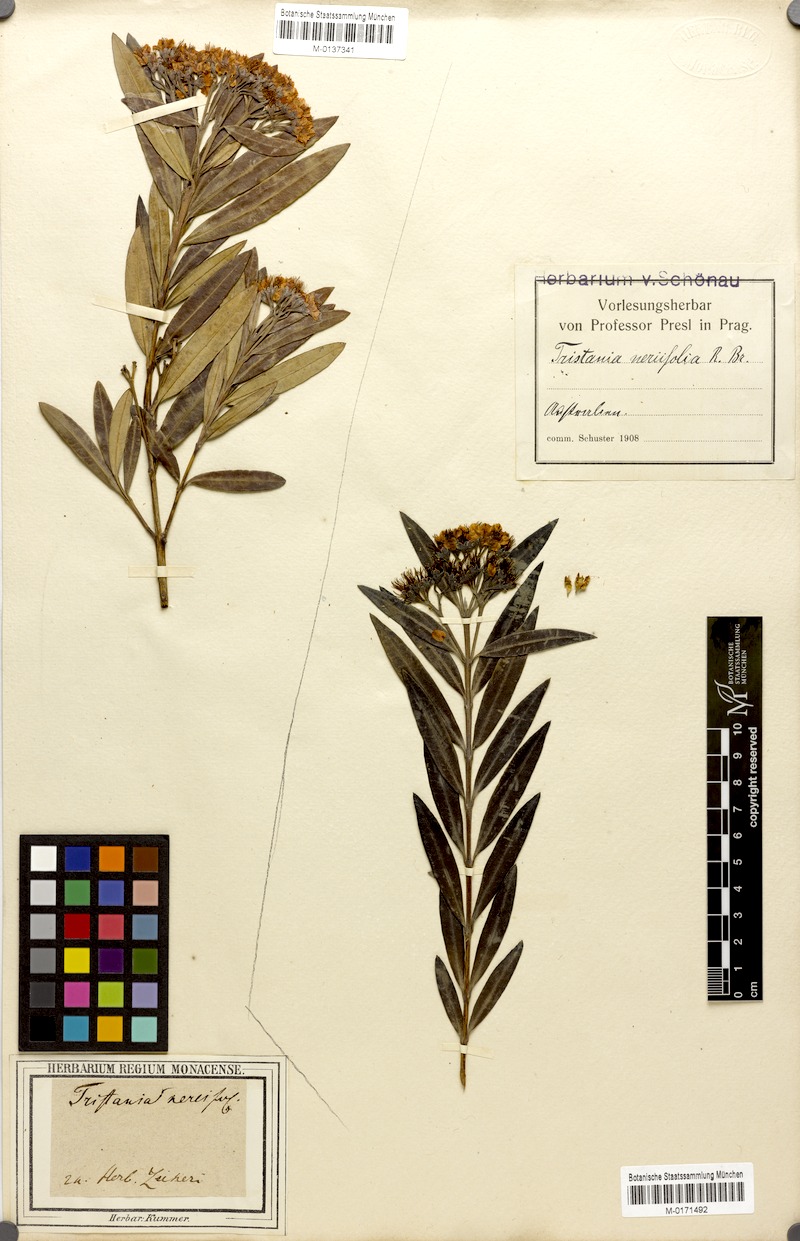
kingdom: Plantae
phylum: Tracheophyta
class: Magnoliopsida
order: Myrtales
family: Myrtaceae
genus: Tristania
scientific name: Tristania neriifolia
